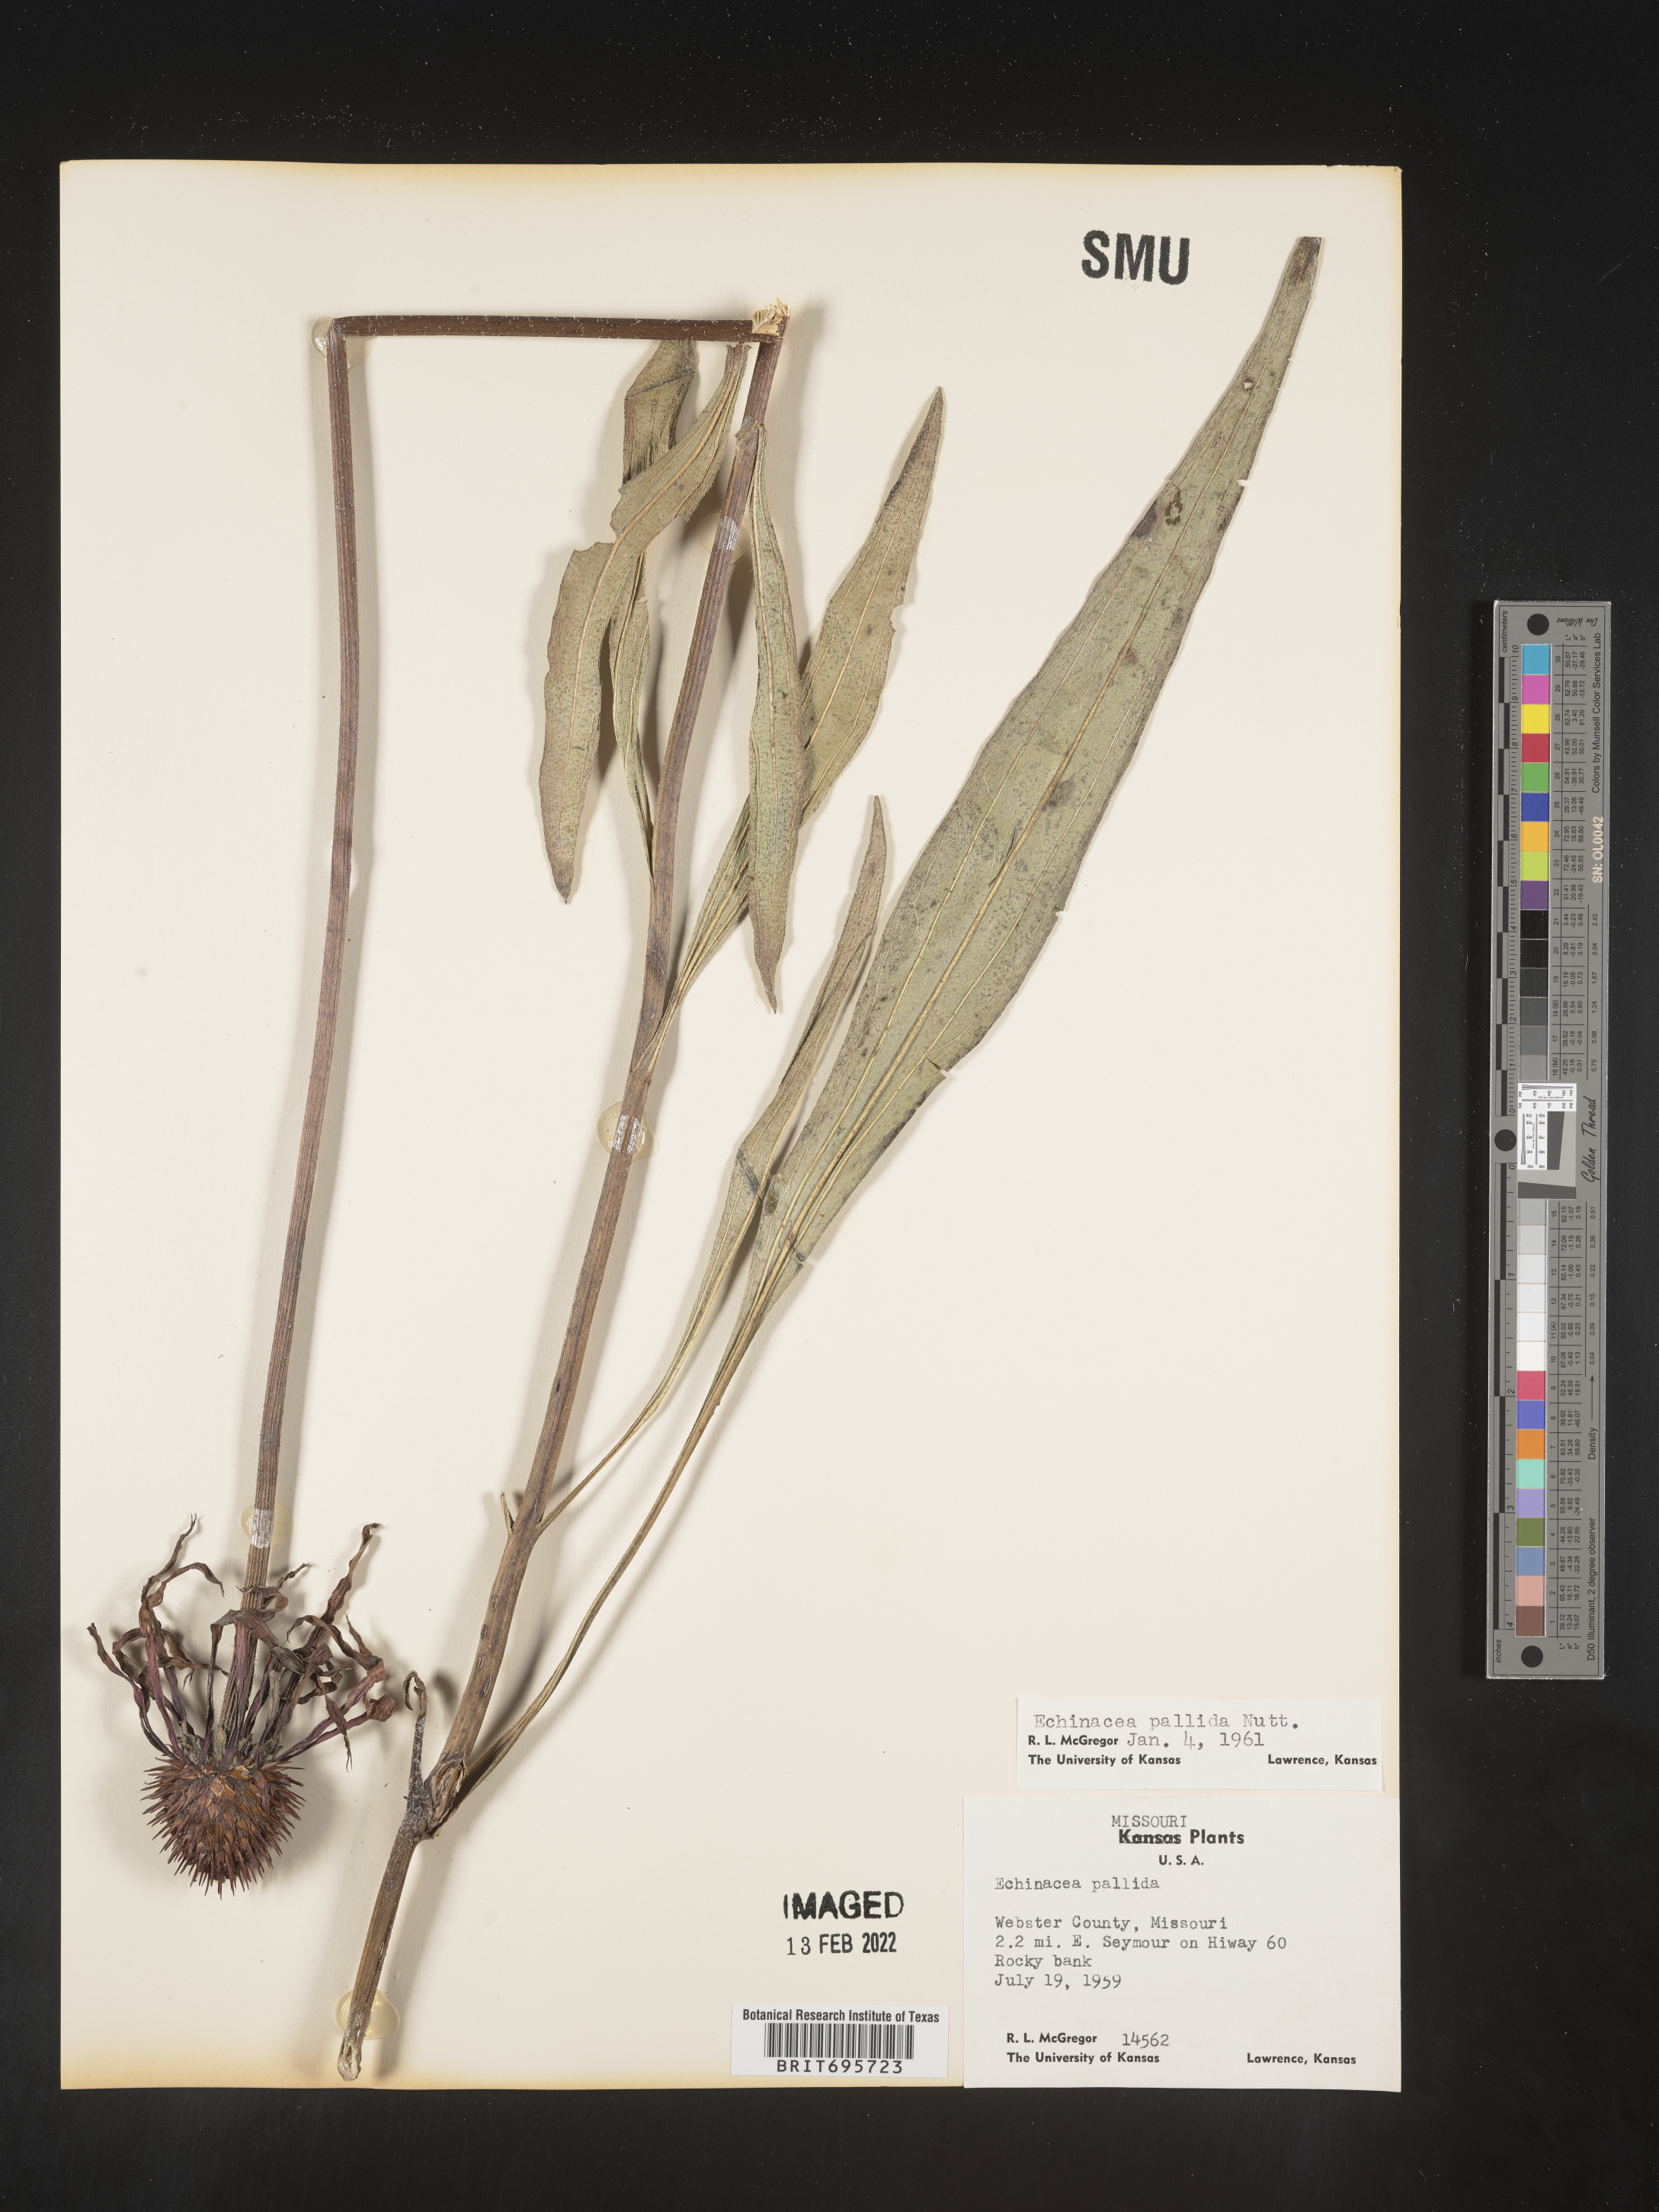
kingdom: Plantae
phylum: Tracheophyta
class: Magnoliopsida
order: Asterales
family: Asteraceae
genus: Echinacea
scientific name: Echinacea pallida
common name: Pale echinacea
